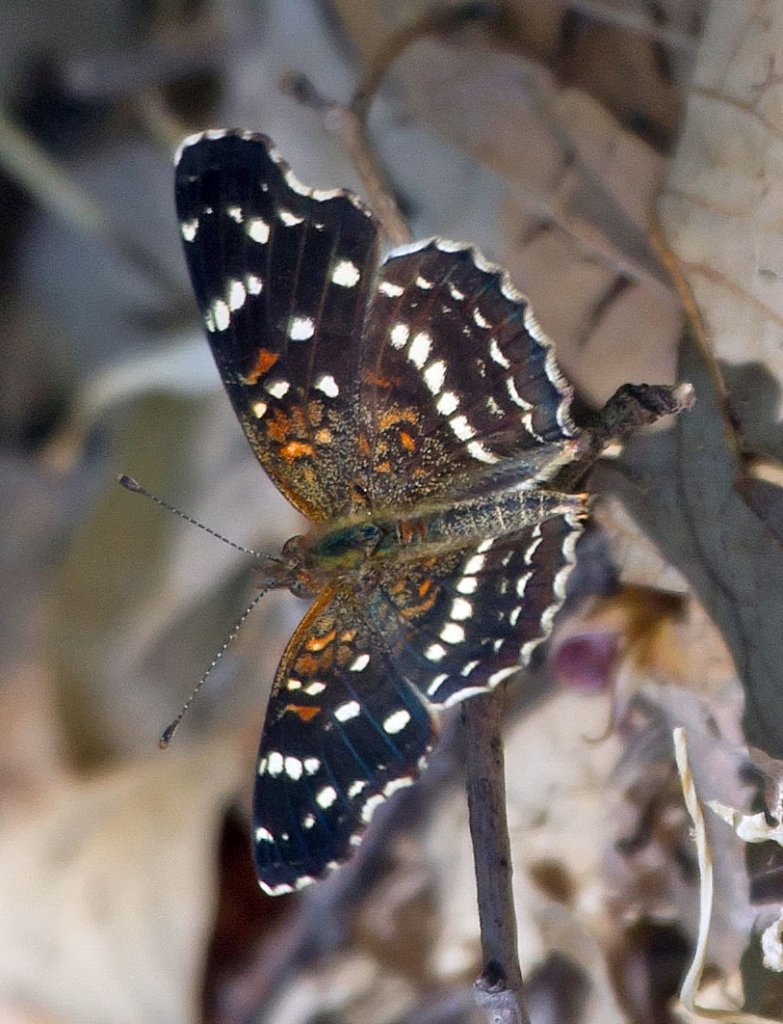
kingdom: Animalia
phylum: Arthropoda
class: Insecta
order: Lepidoptera
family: Nymphalidae
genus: Anthanassa
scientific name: Anthanassa texana
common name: Texan Crescent
